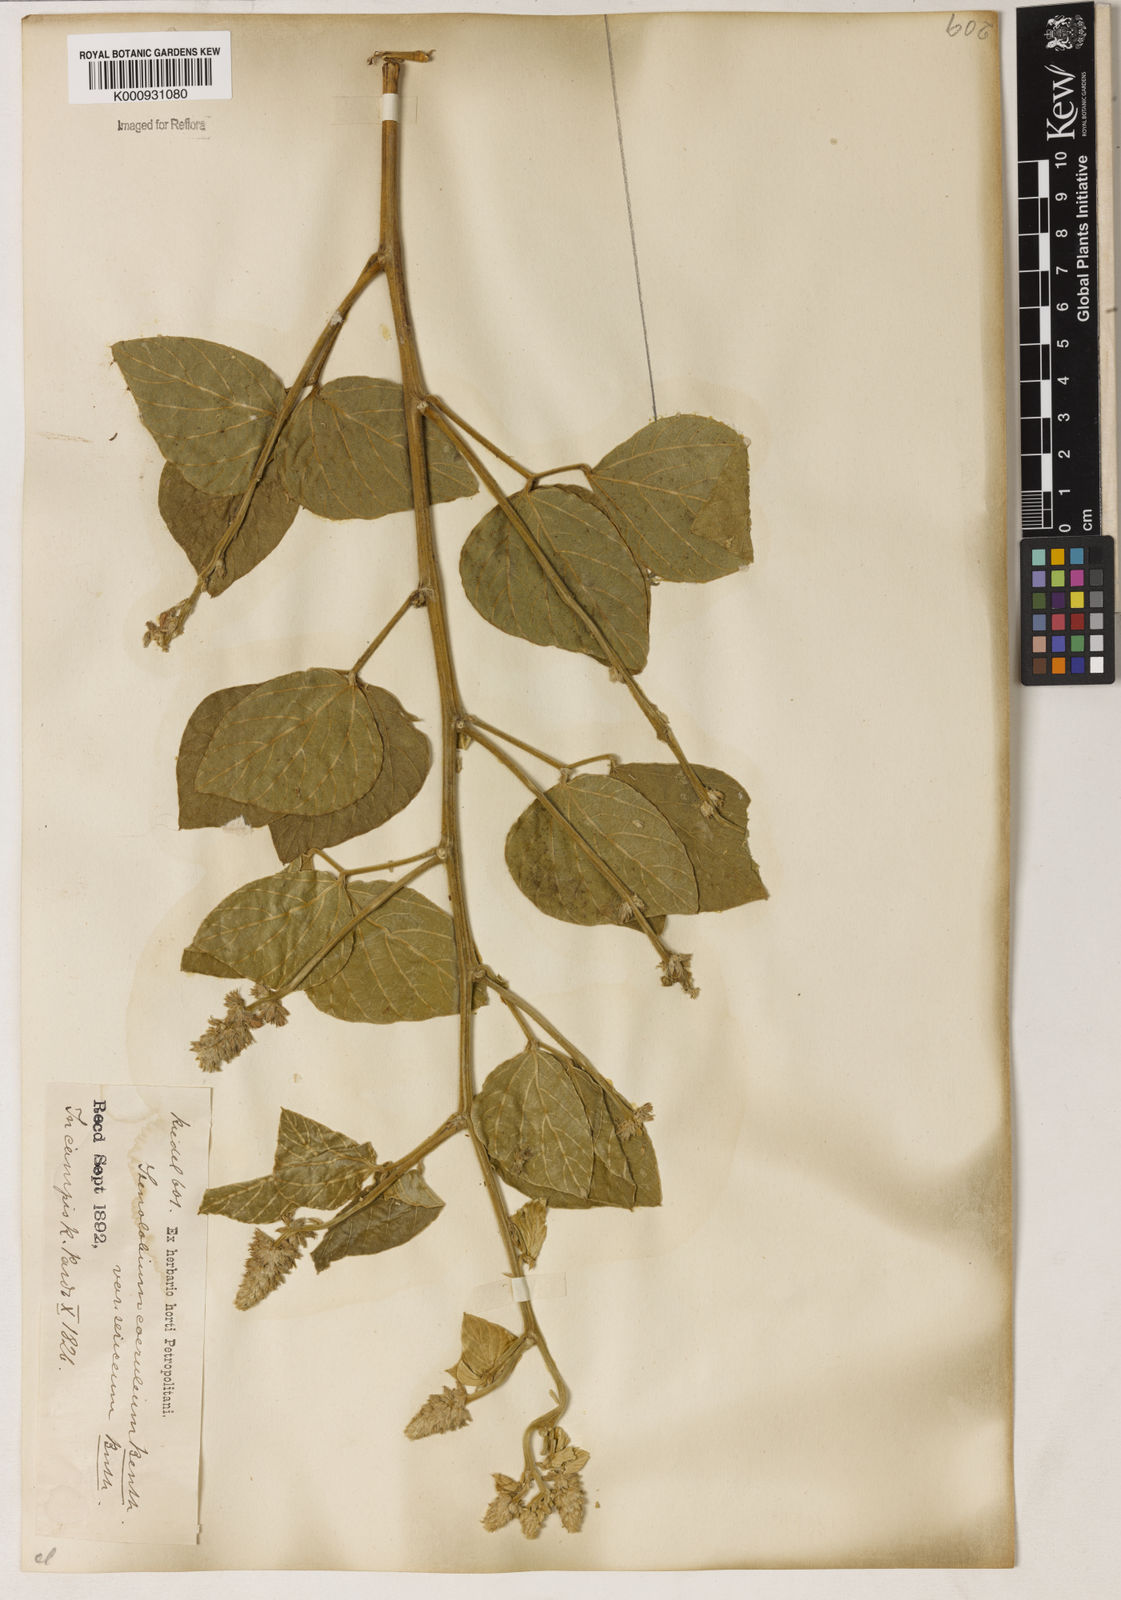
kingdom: Plantae
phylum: Tracheophyta
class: Magnoliopsida
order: Fabales
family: Fabaceae
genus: Calopogonium
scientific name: Calopogonium caeruleum
